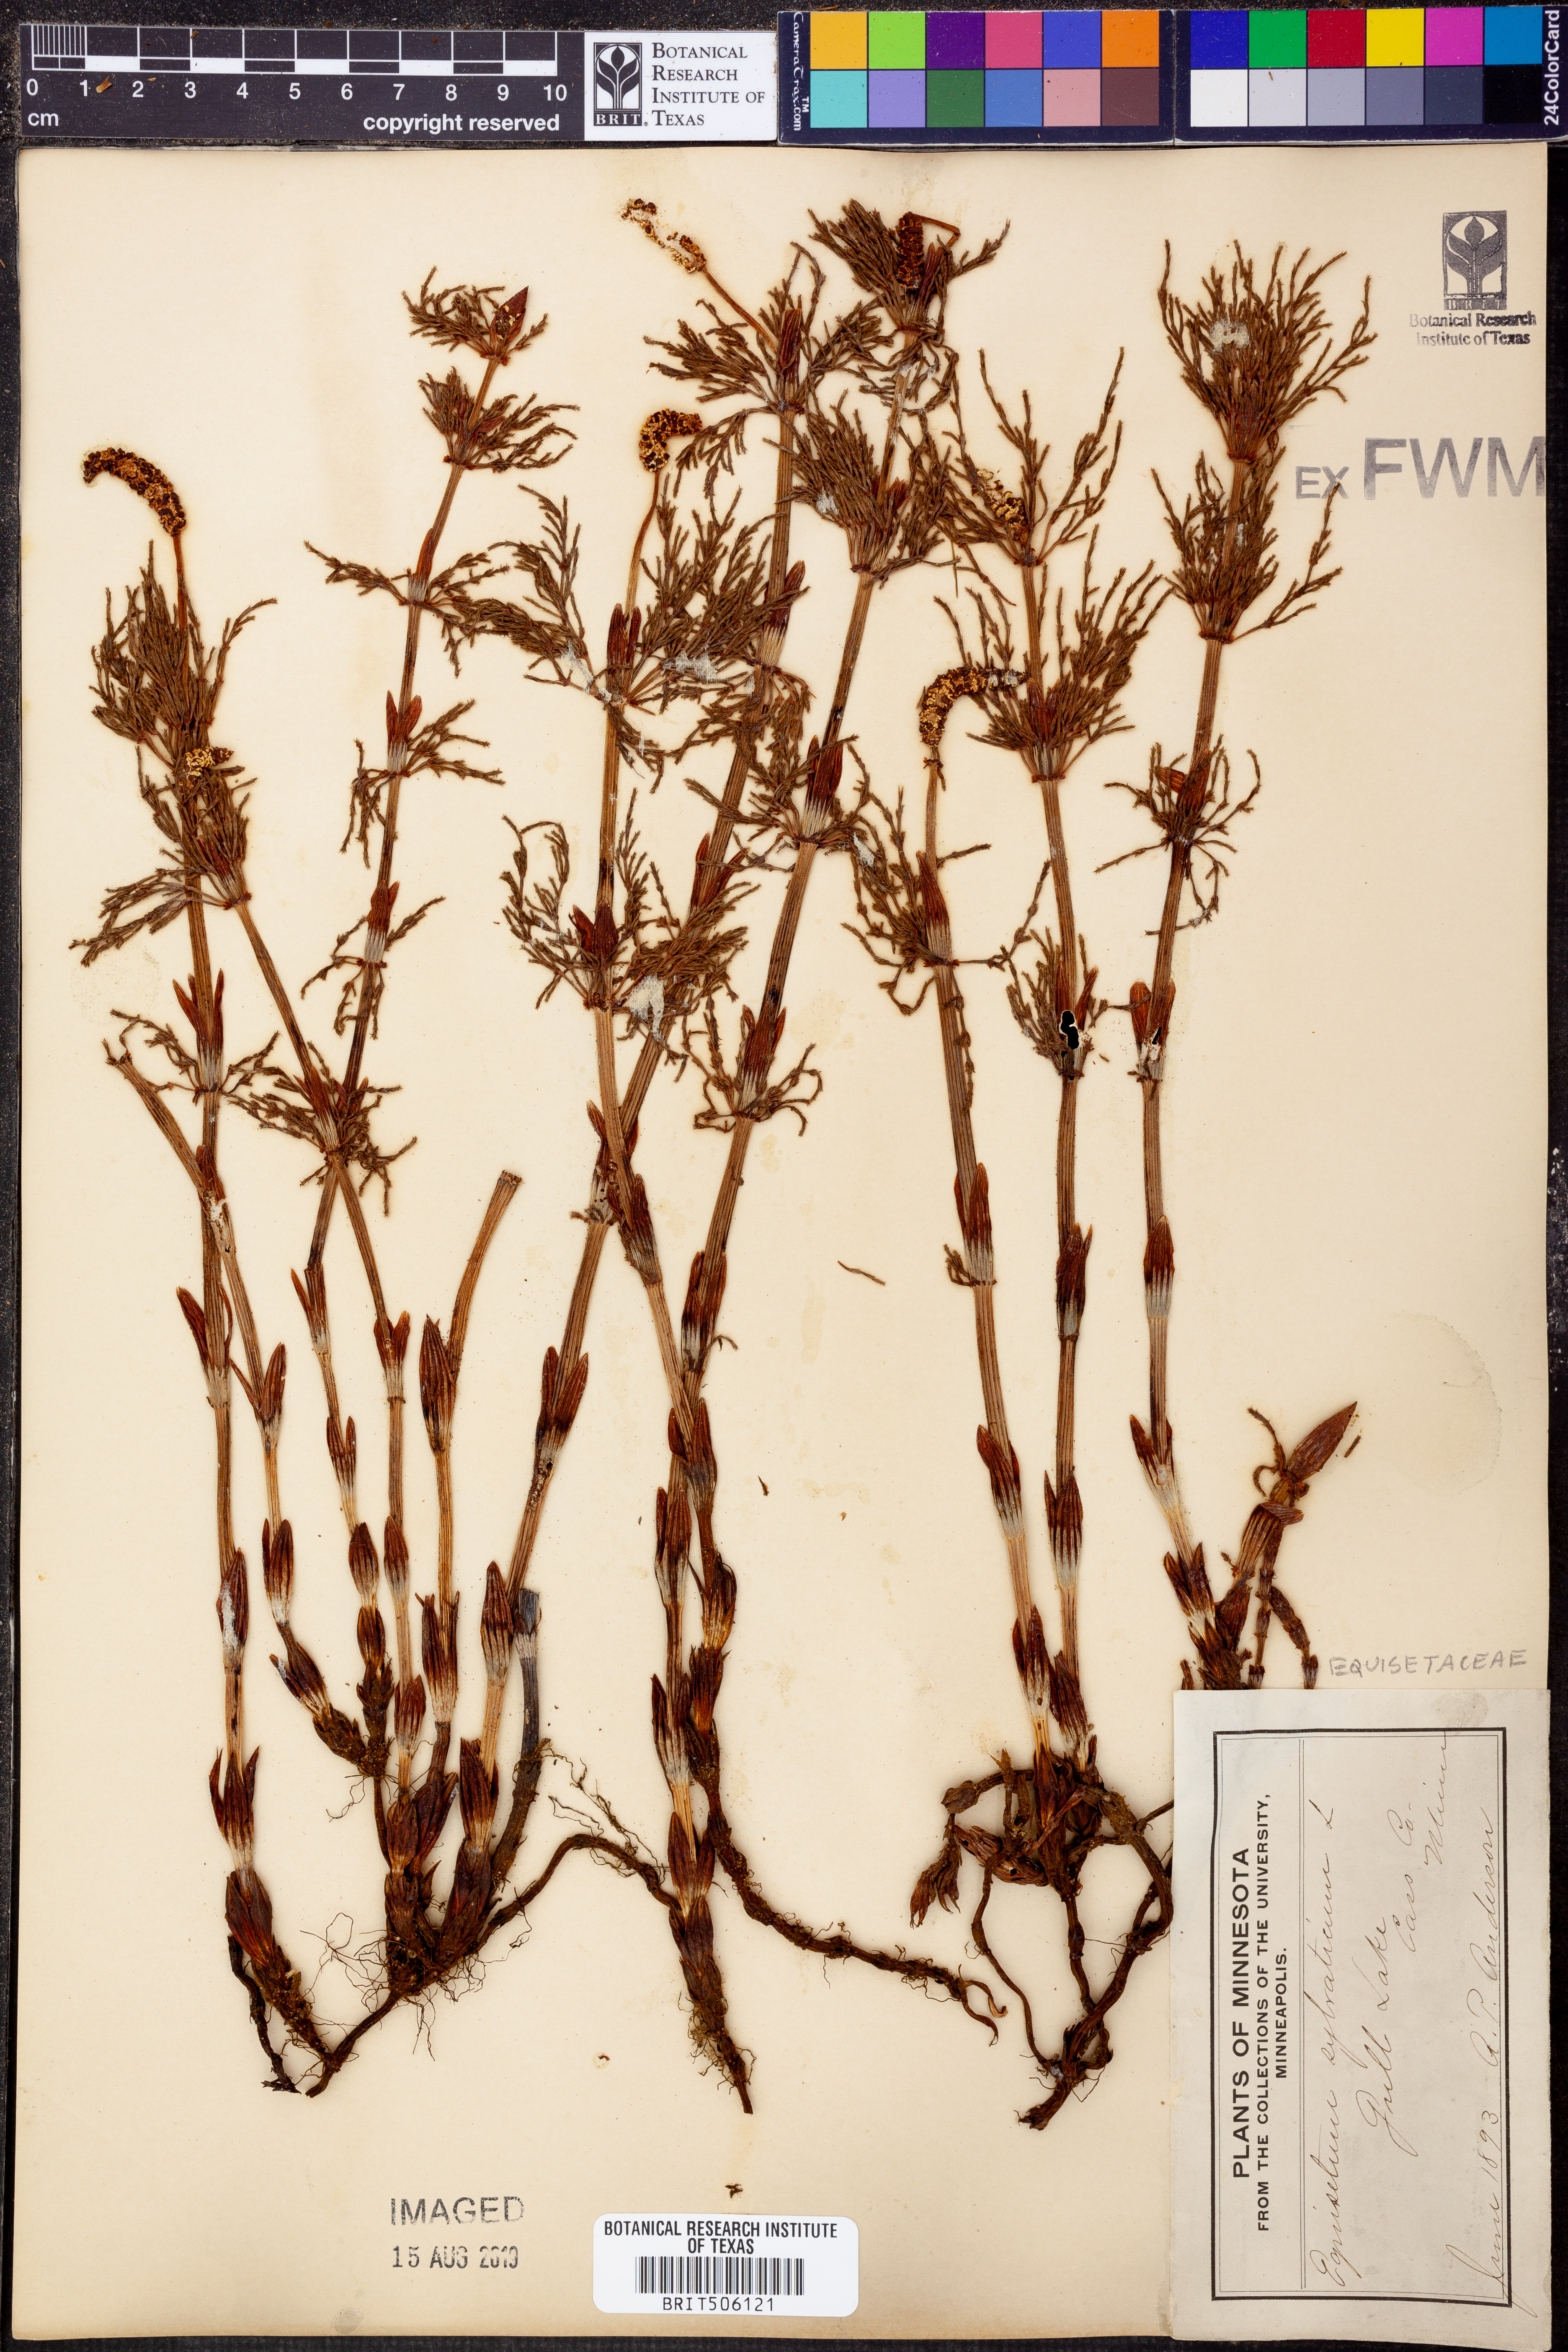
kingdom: Plantae
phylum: Tracheophyta
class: Polypodiopsida
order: Equisetales
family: Equisetaceae
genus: Equisetum
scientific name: Equisetum sylvaticum
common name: Wood horsetail
